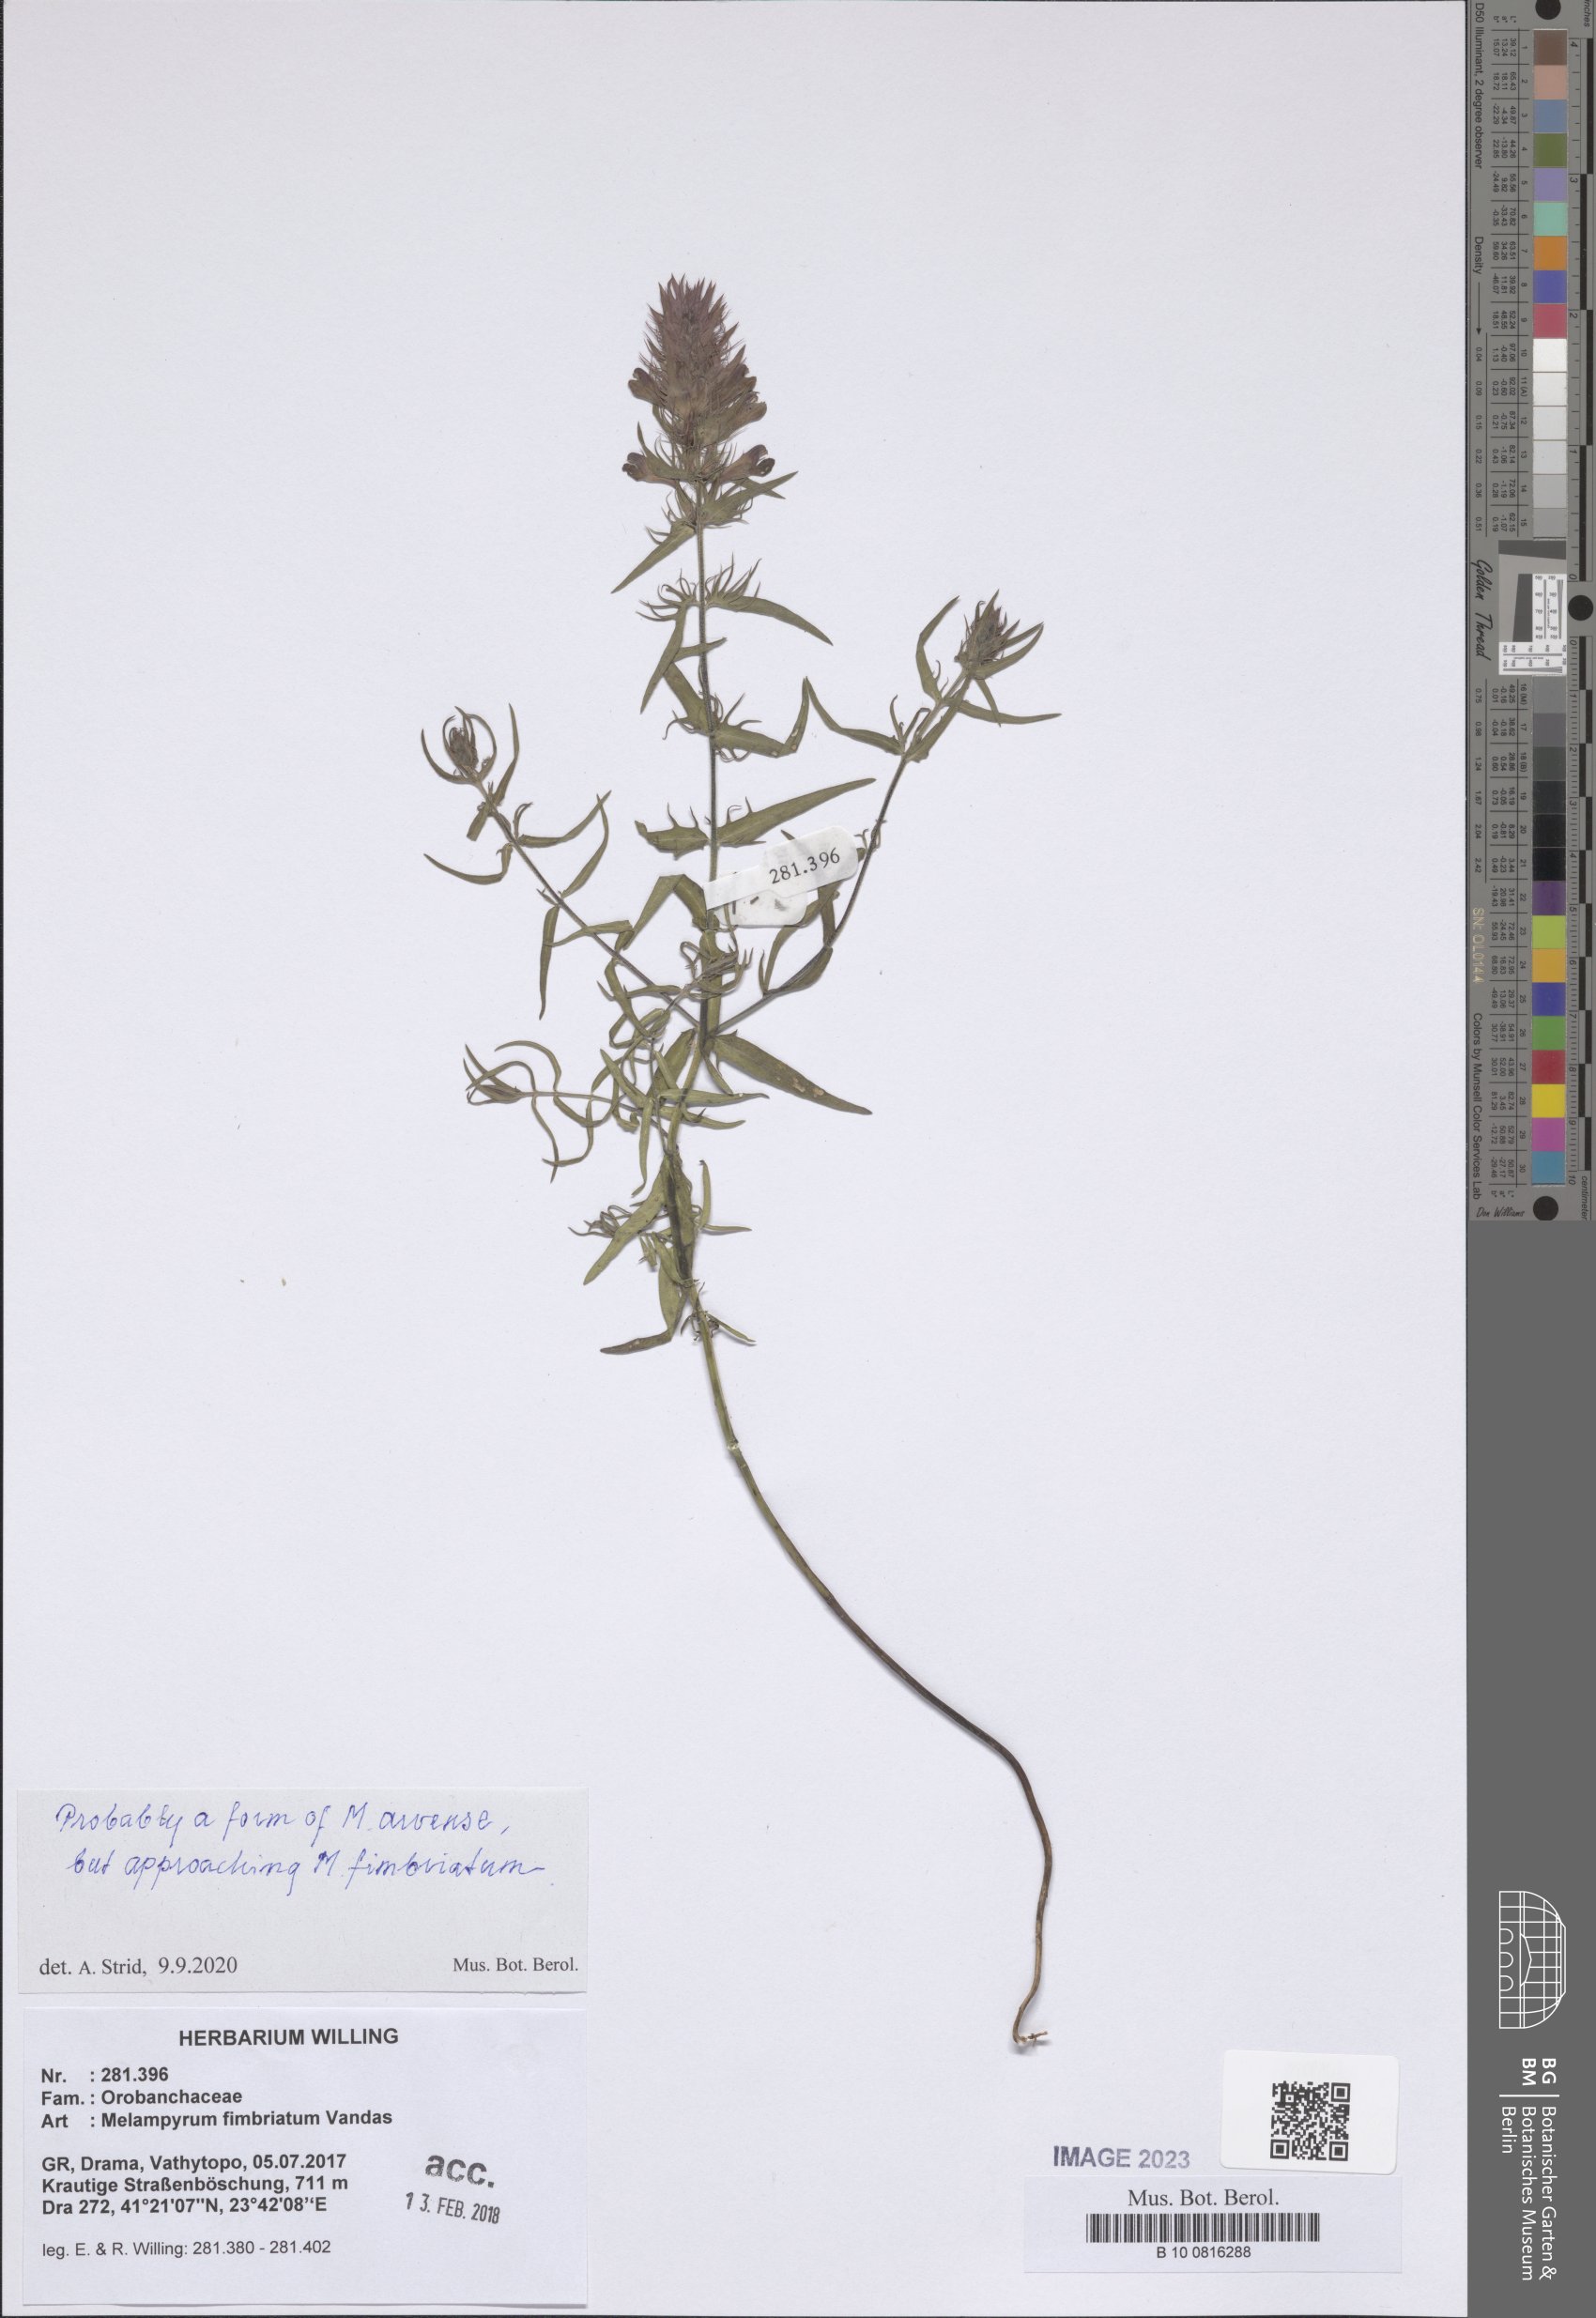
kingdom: Plantae
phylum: Tracheophyta
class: Magnoliopsida
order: Lamiales
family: Orobanchaceae
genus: Melampyrum
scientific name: Melampyrum arvense
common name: Field cow-wheat
